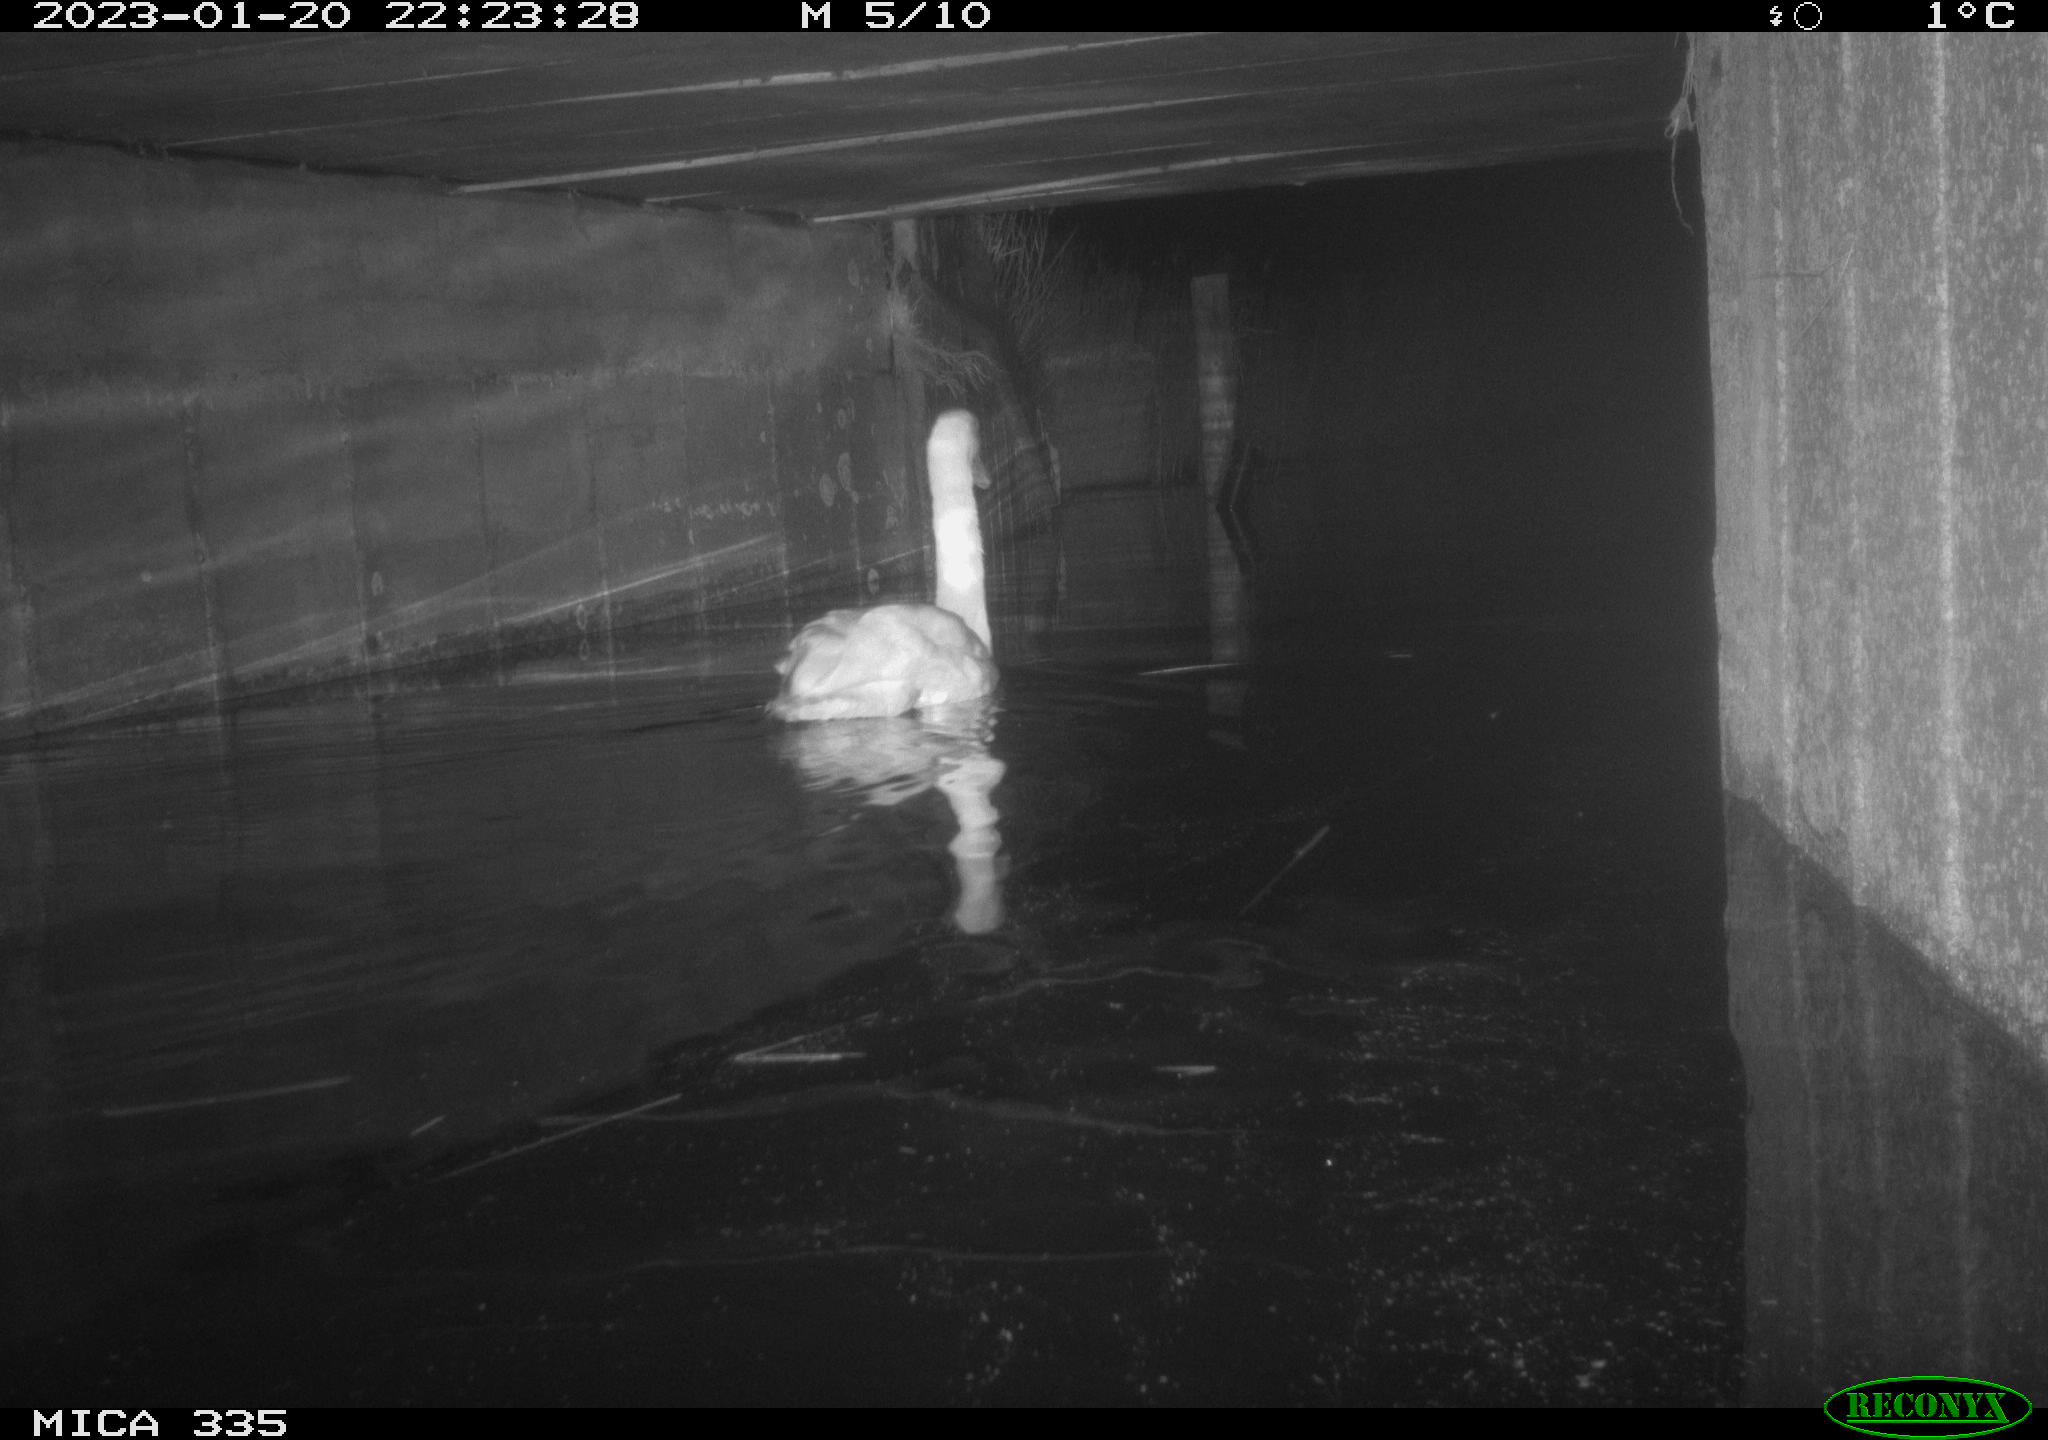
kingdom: Animalia
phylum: Chordata
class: Aves
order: Anseriformes
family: Anatidae
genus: Cygnus
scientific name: Cygnus olor
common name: Mute swan
